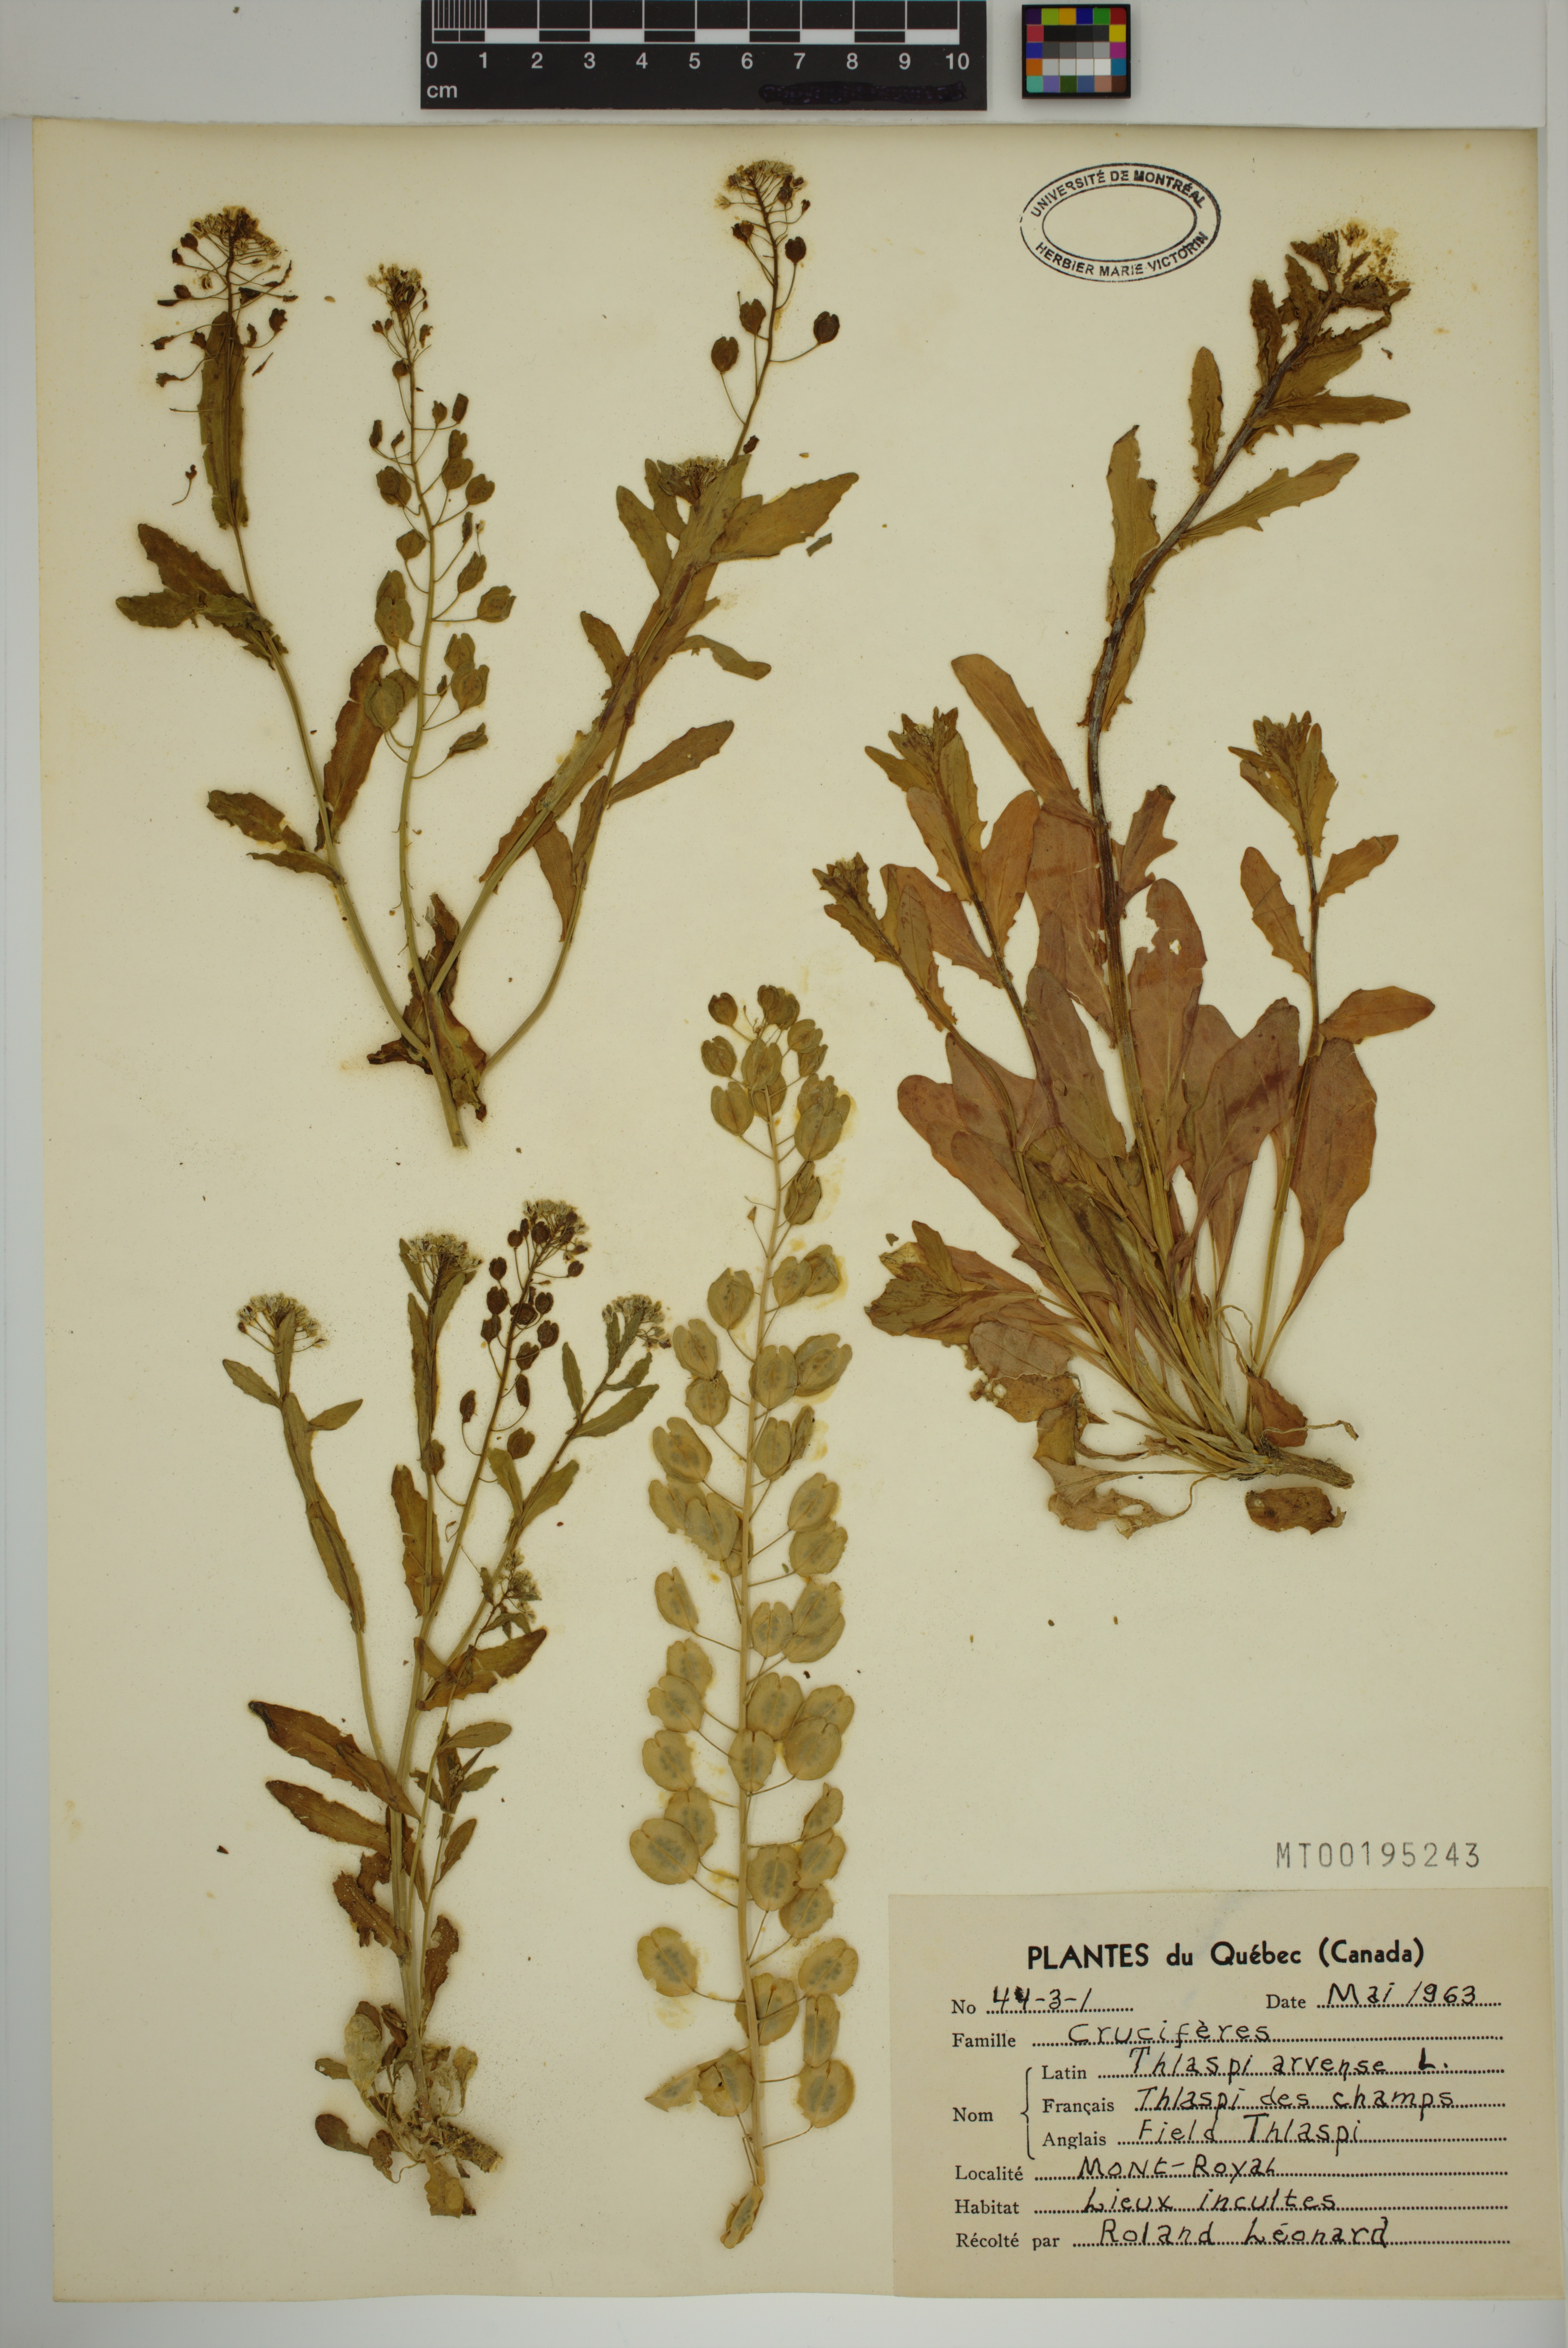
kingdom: Plantae
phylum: Tracheophyta
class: Magnoliopsida
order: Brassicales
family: Brassicaceae
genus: Thlaspi
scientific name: Thlaspi arvense
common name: Field pennycress
